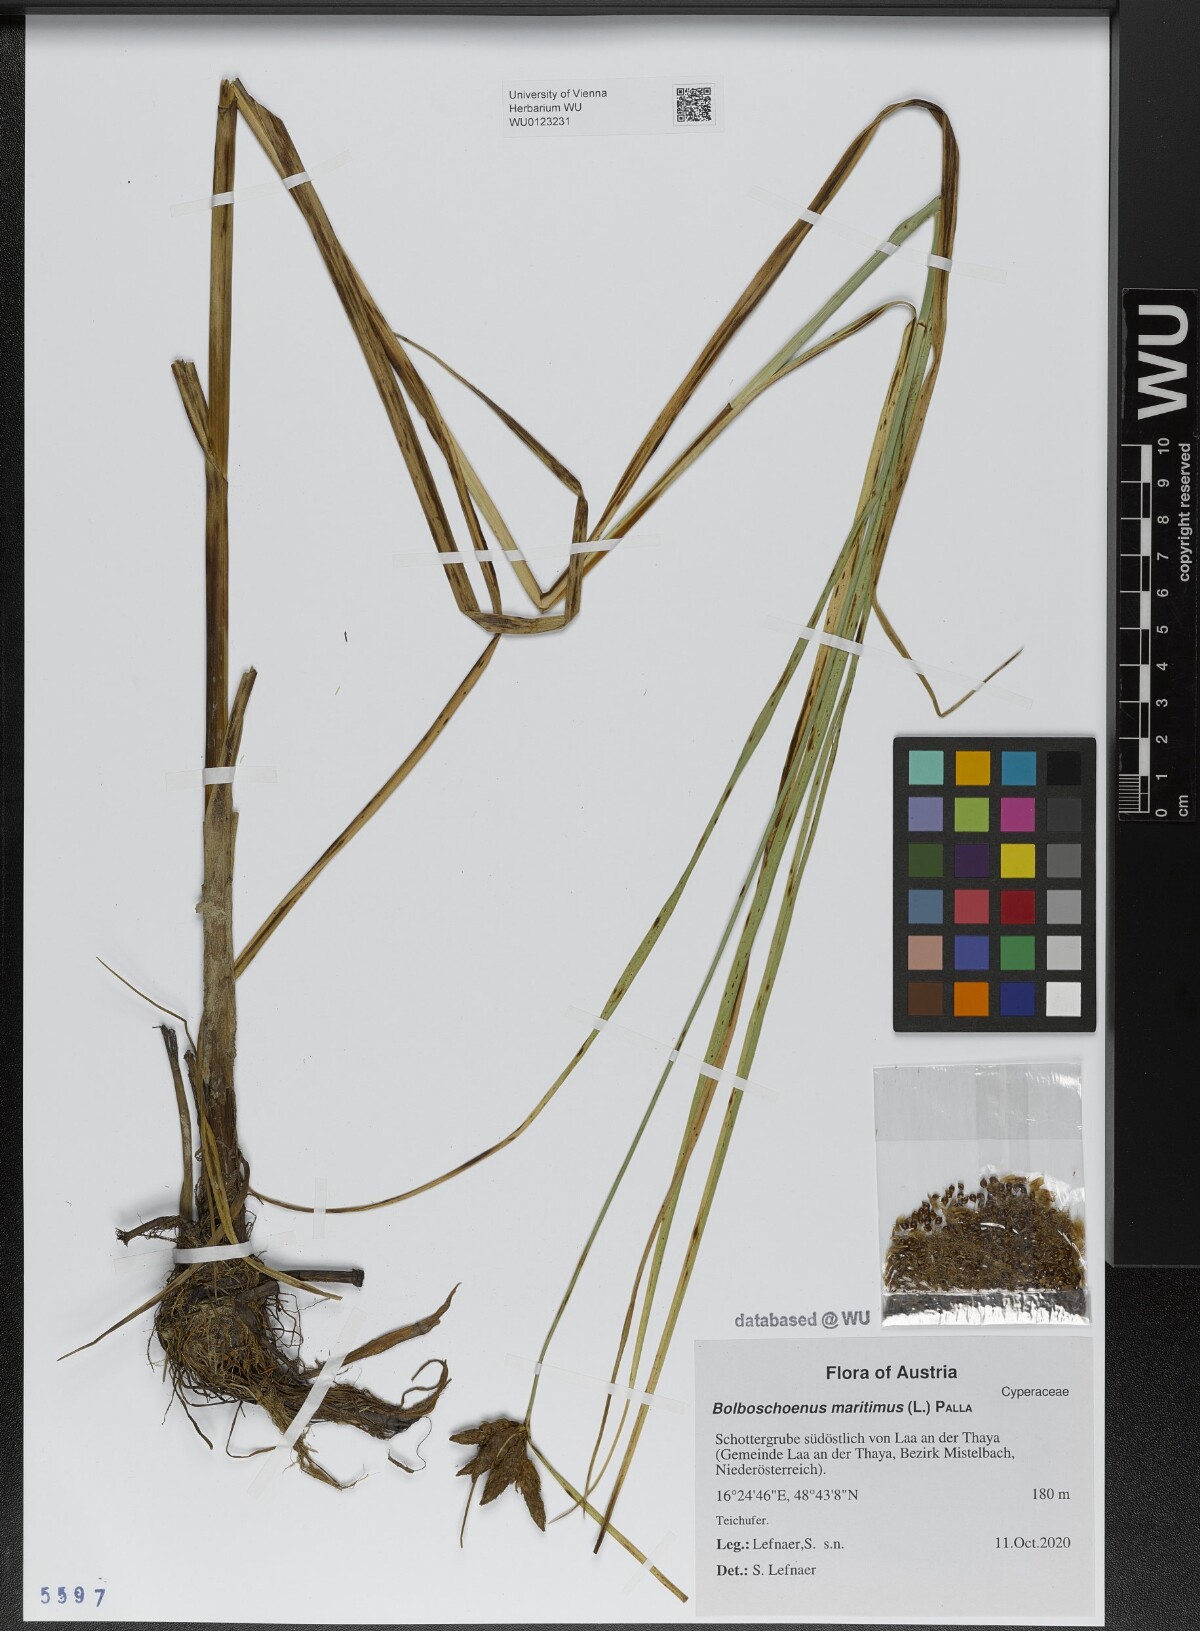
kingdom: Plantae
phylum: Tracheophyta
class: Liliopsida
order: Poales
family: Cyperaceae
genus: Bolboschoenus
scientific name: Bolboschoenus maritimus
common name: Sea club-rush
